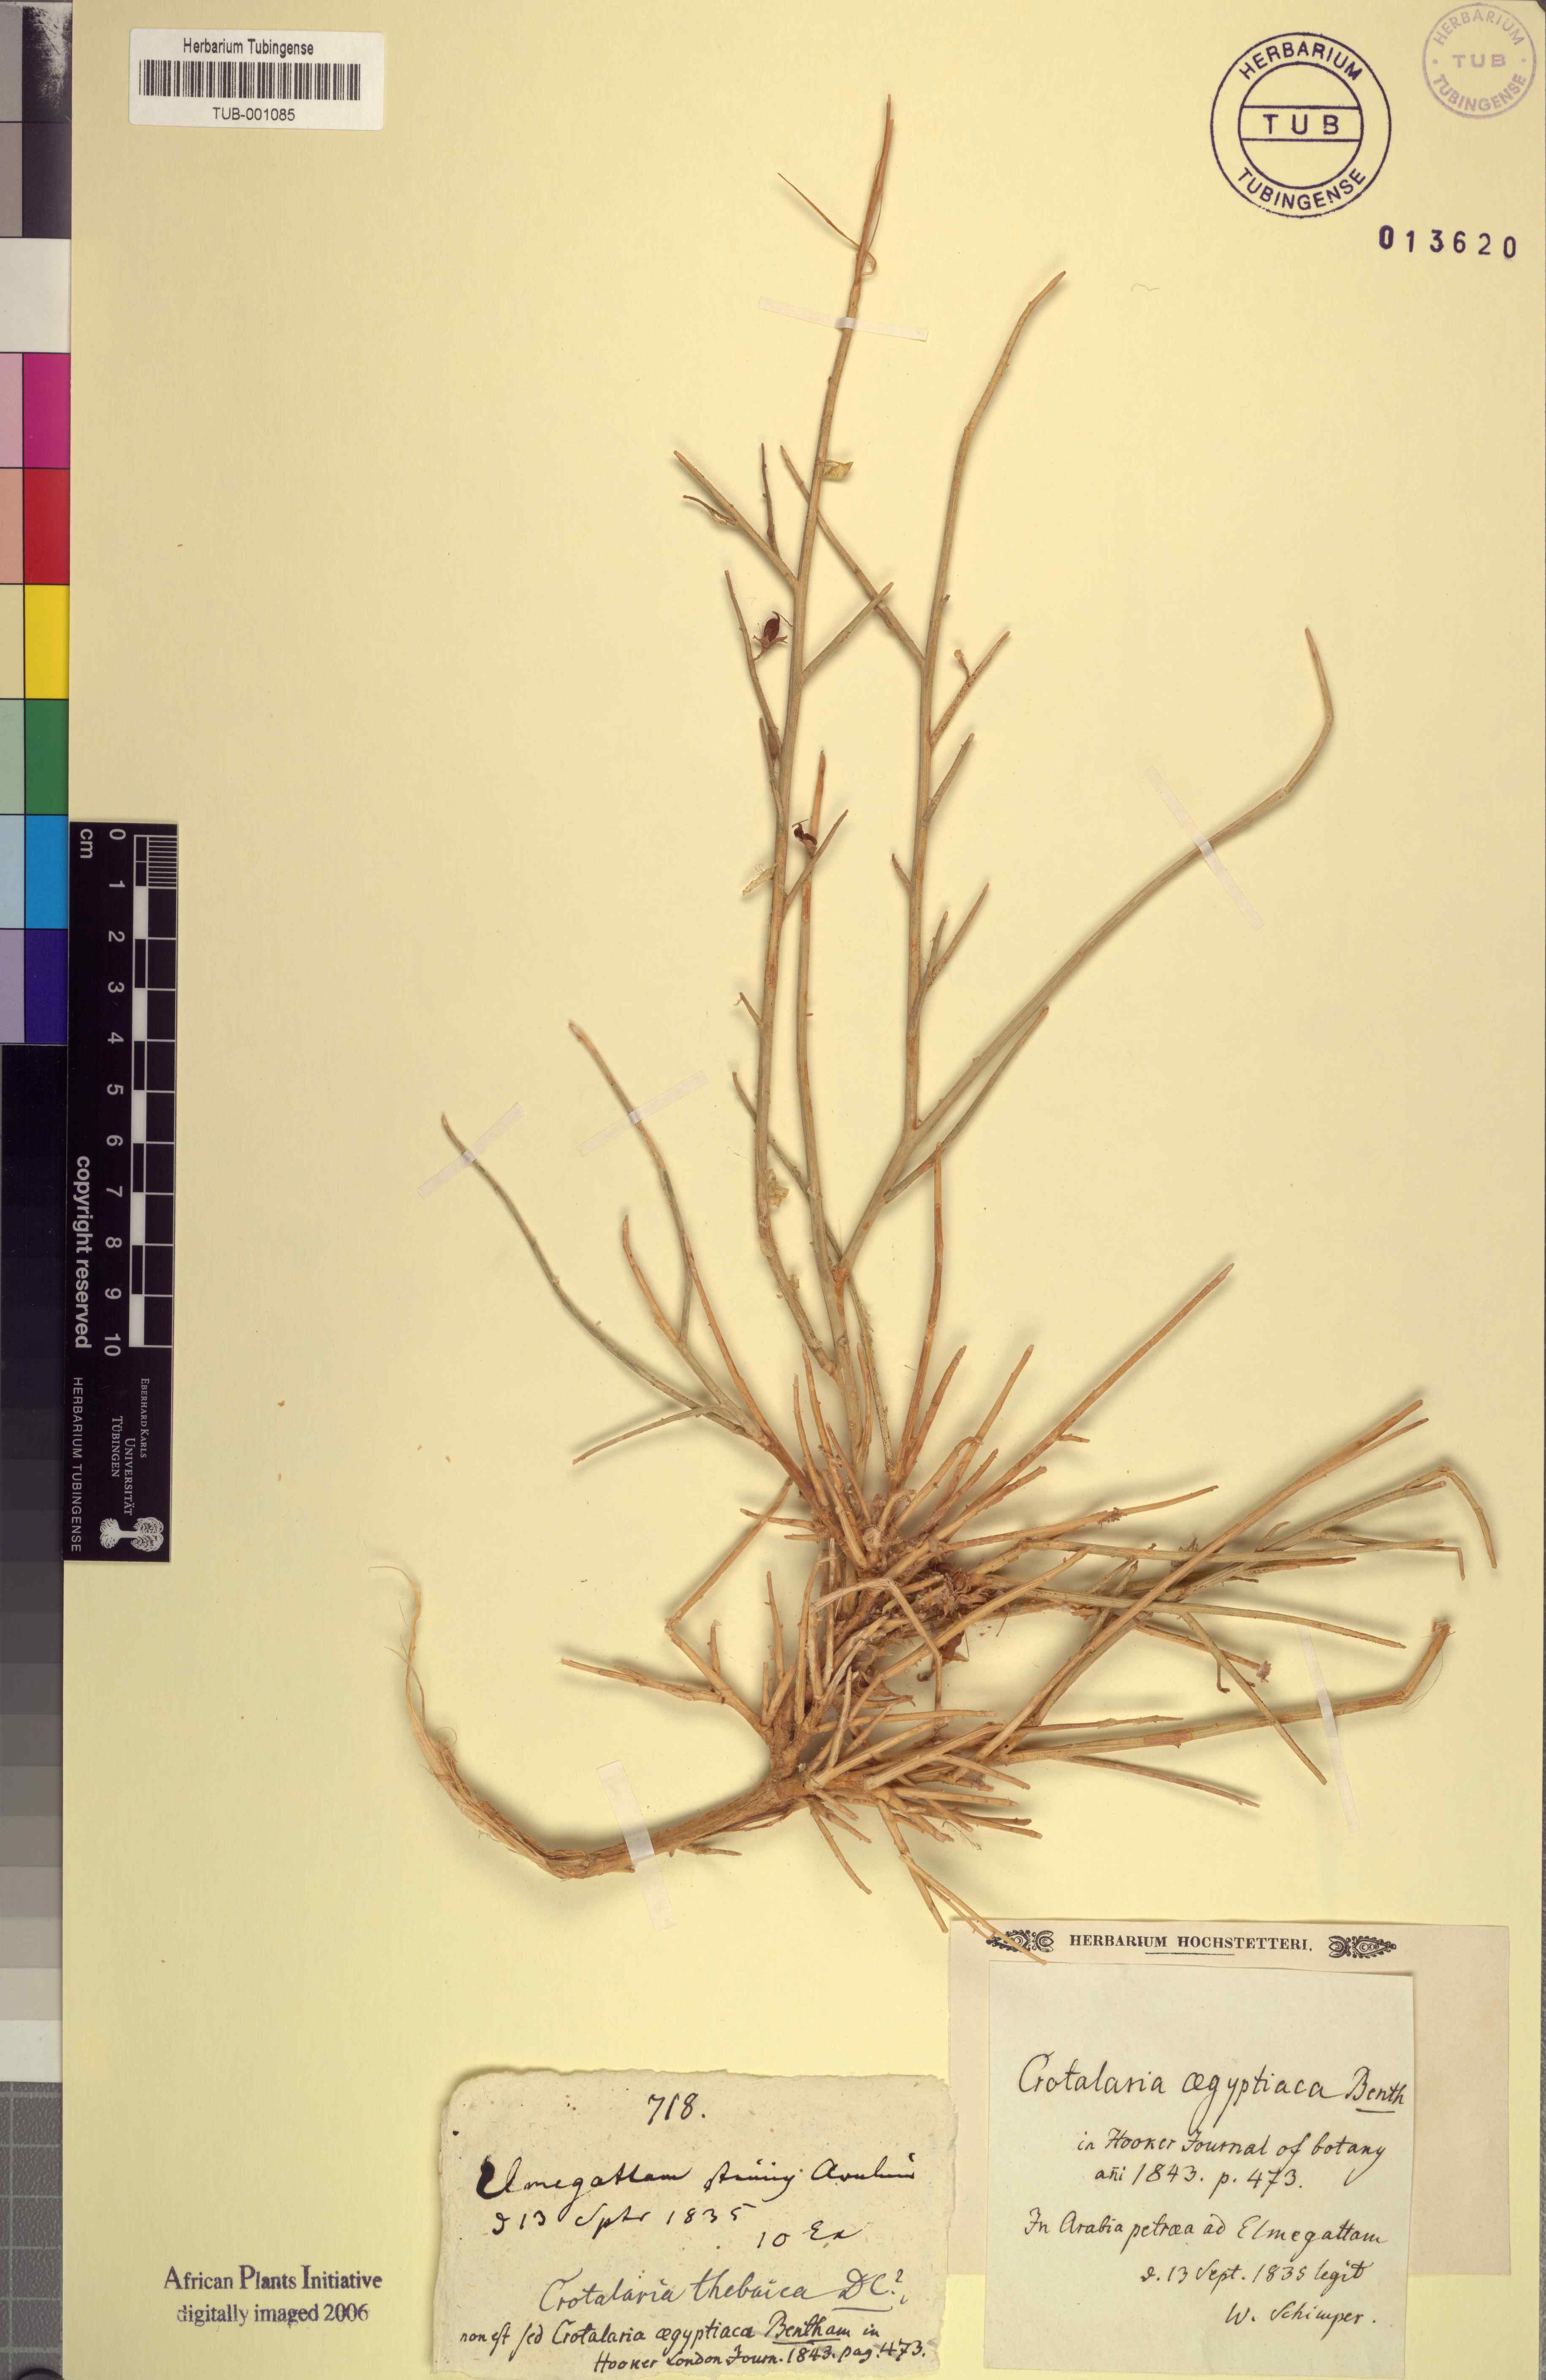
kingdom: Plantae
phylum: Tracheophyta
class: Magnoliopsida
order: Fabales
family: Fabaceae
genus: Crotalaria
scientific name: Crotalaria aegyptiaca
